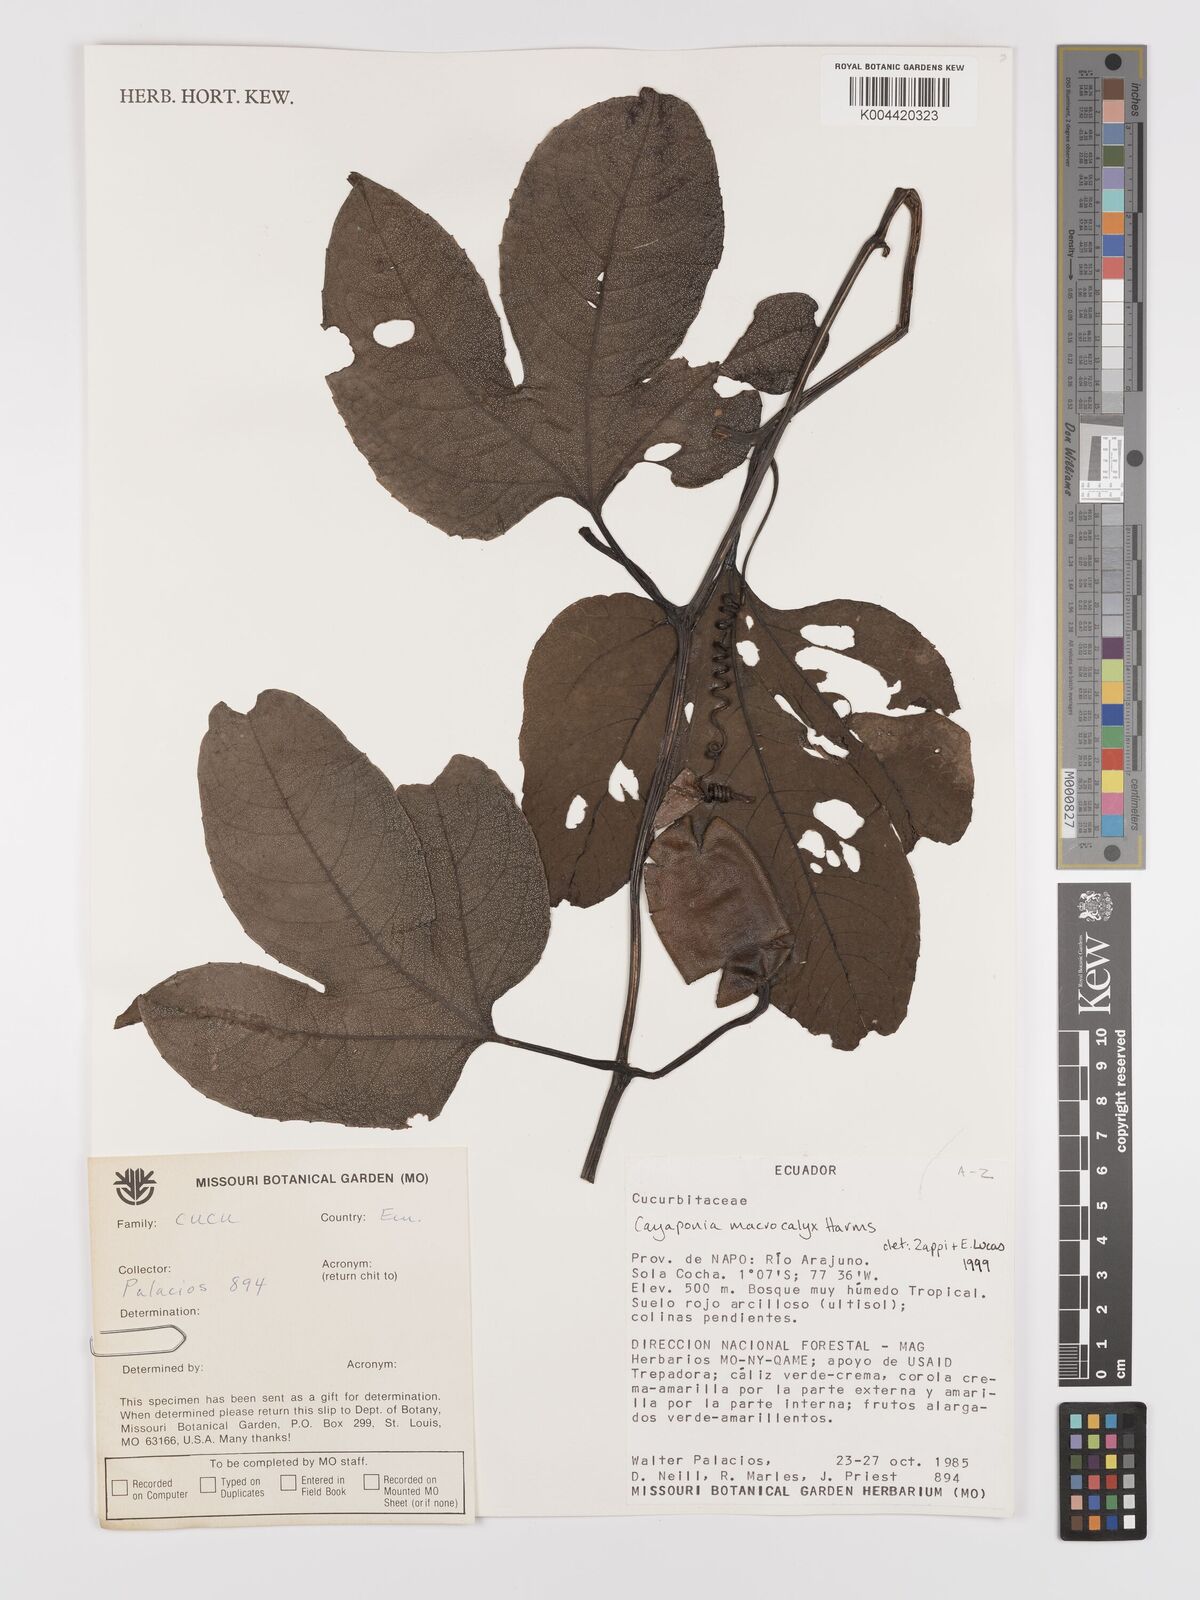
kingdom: Plantae
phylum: Tracheophyta
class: Magnoliopsida
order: Cucurbitales
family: Cucurbitaceae
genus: Cayaponia
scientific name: Cayaponia macrocalyx
